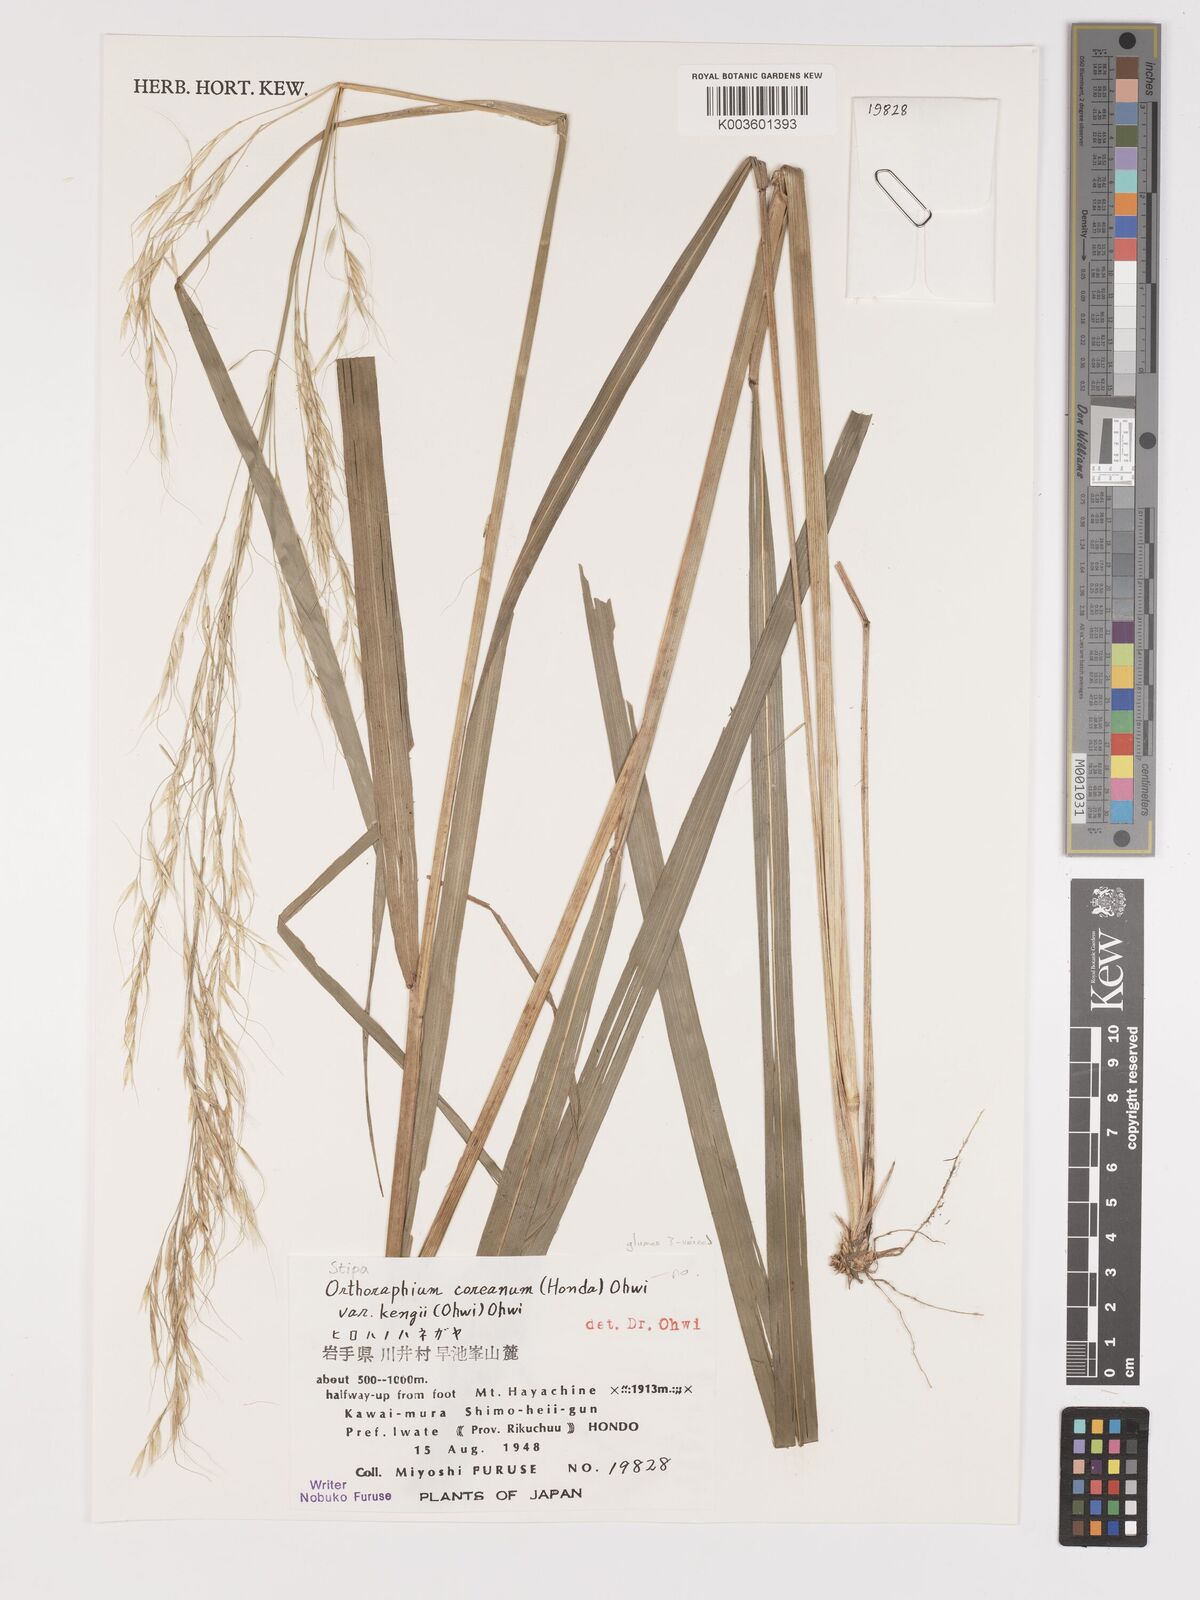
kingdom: Plantae
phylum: Tracheophyta
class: Liliopsida
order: Poales
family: Poaceae
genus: Patis
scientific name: Patis coreana
